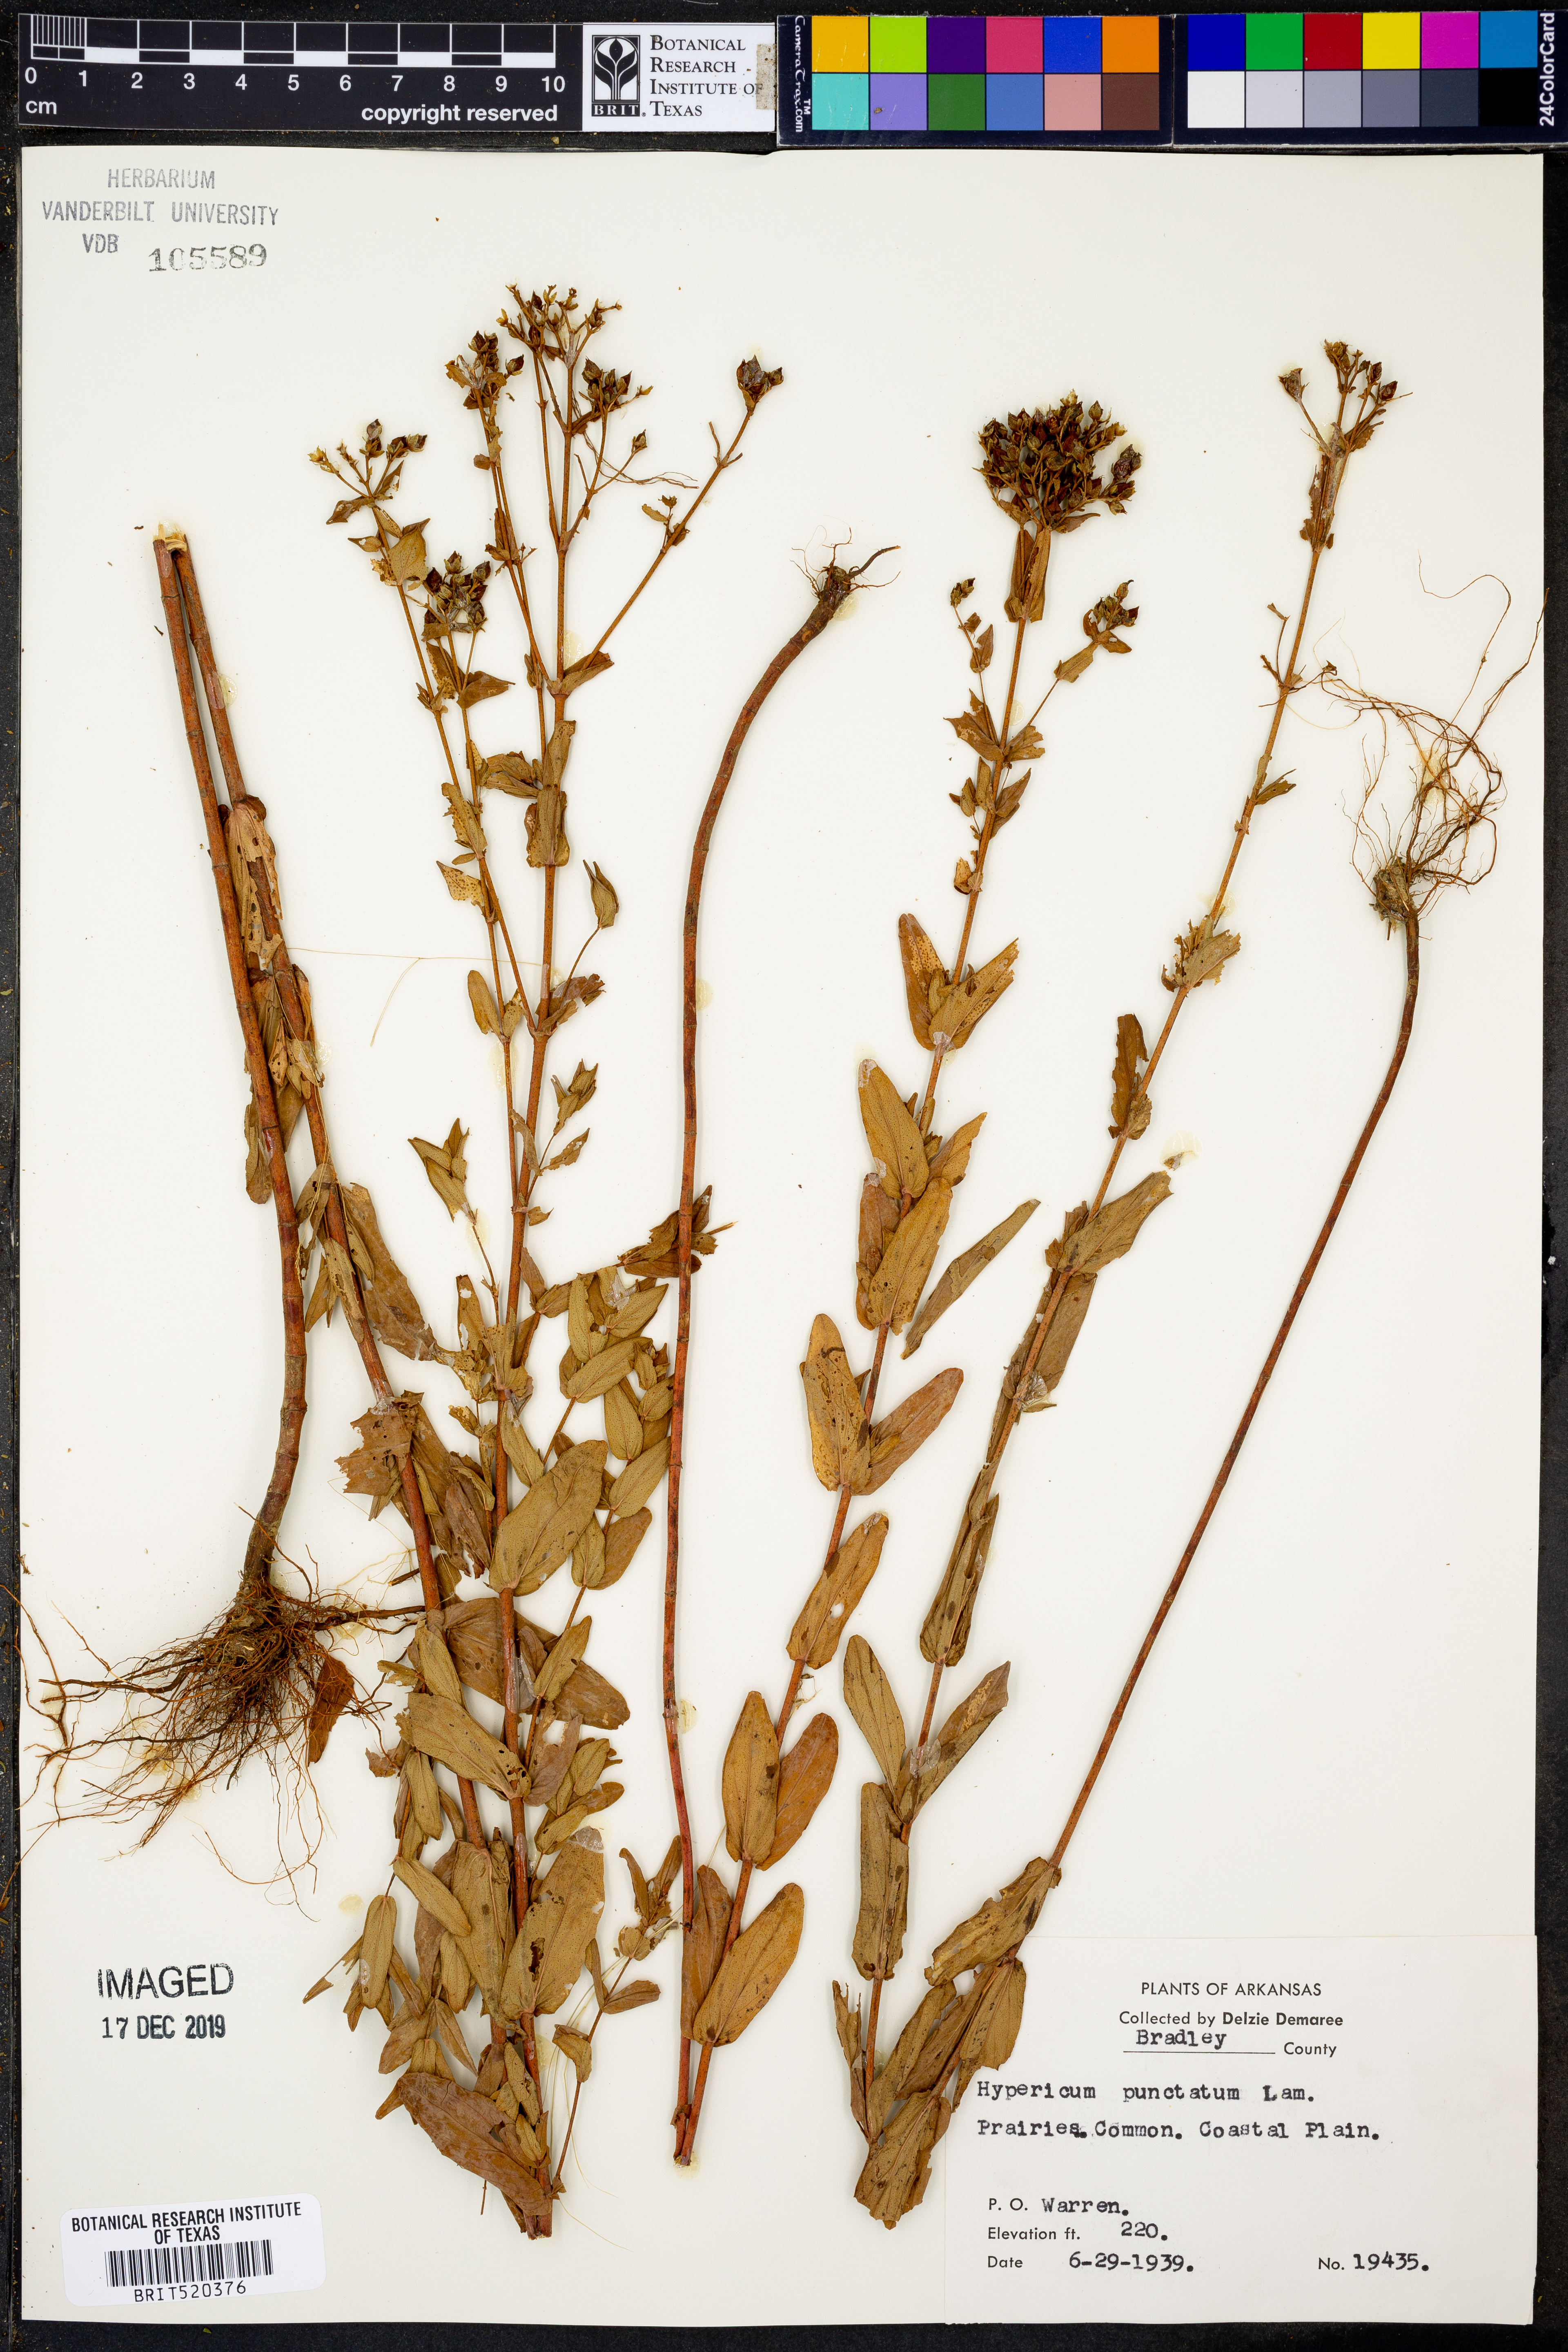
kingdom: Plantae
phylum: Tracheophyta
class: Magnoliopsida
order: Malpighiales
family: Hypericaceae
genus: Hypericum
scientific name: Hypericum punctatum
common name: Spotted st. john's-wort
